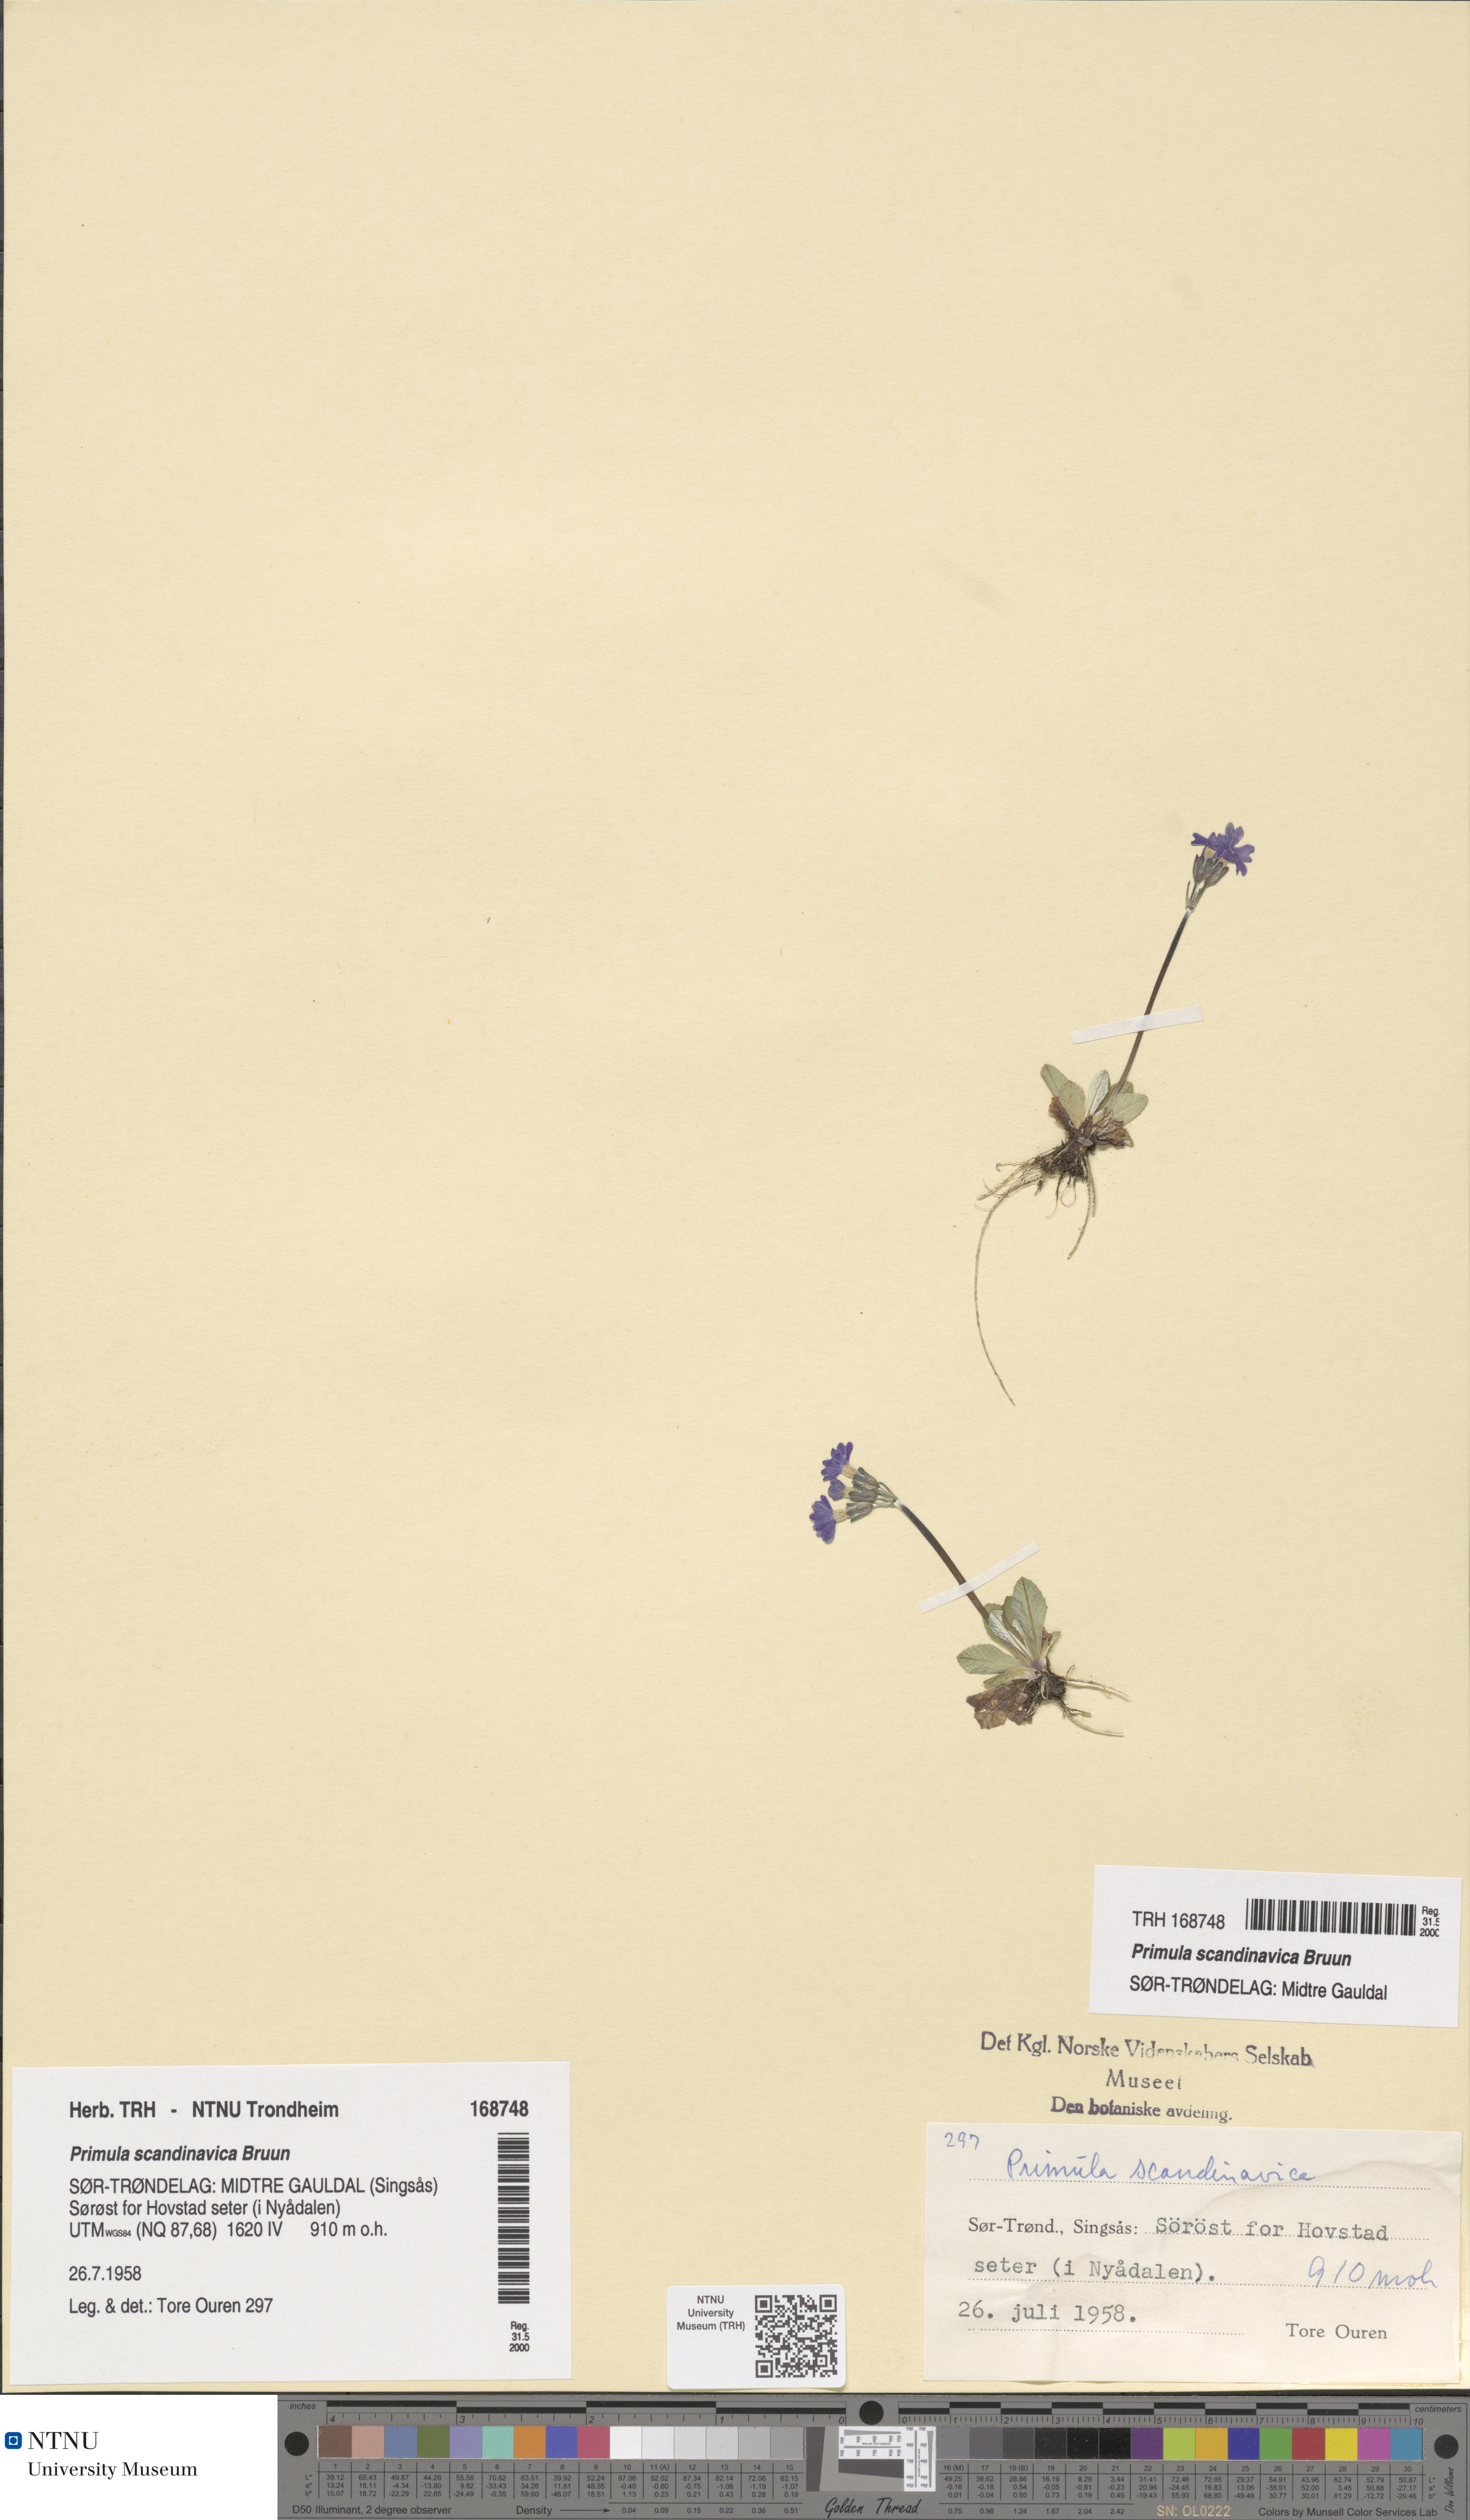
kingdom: Plantae
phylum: Tracheophyta
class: Magnoliopsida
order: Ericales
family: Primulaceae
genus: Primula
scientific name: Primula scandinavica
